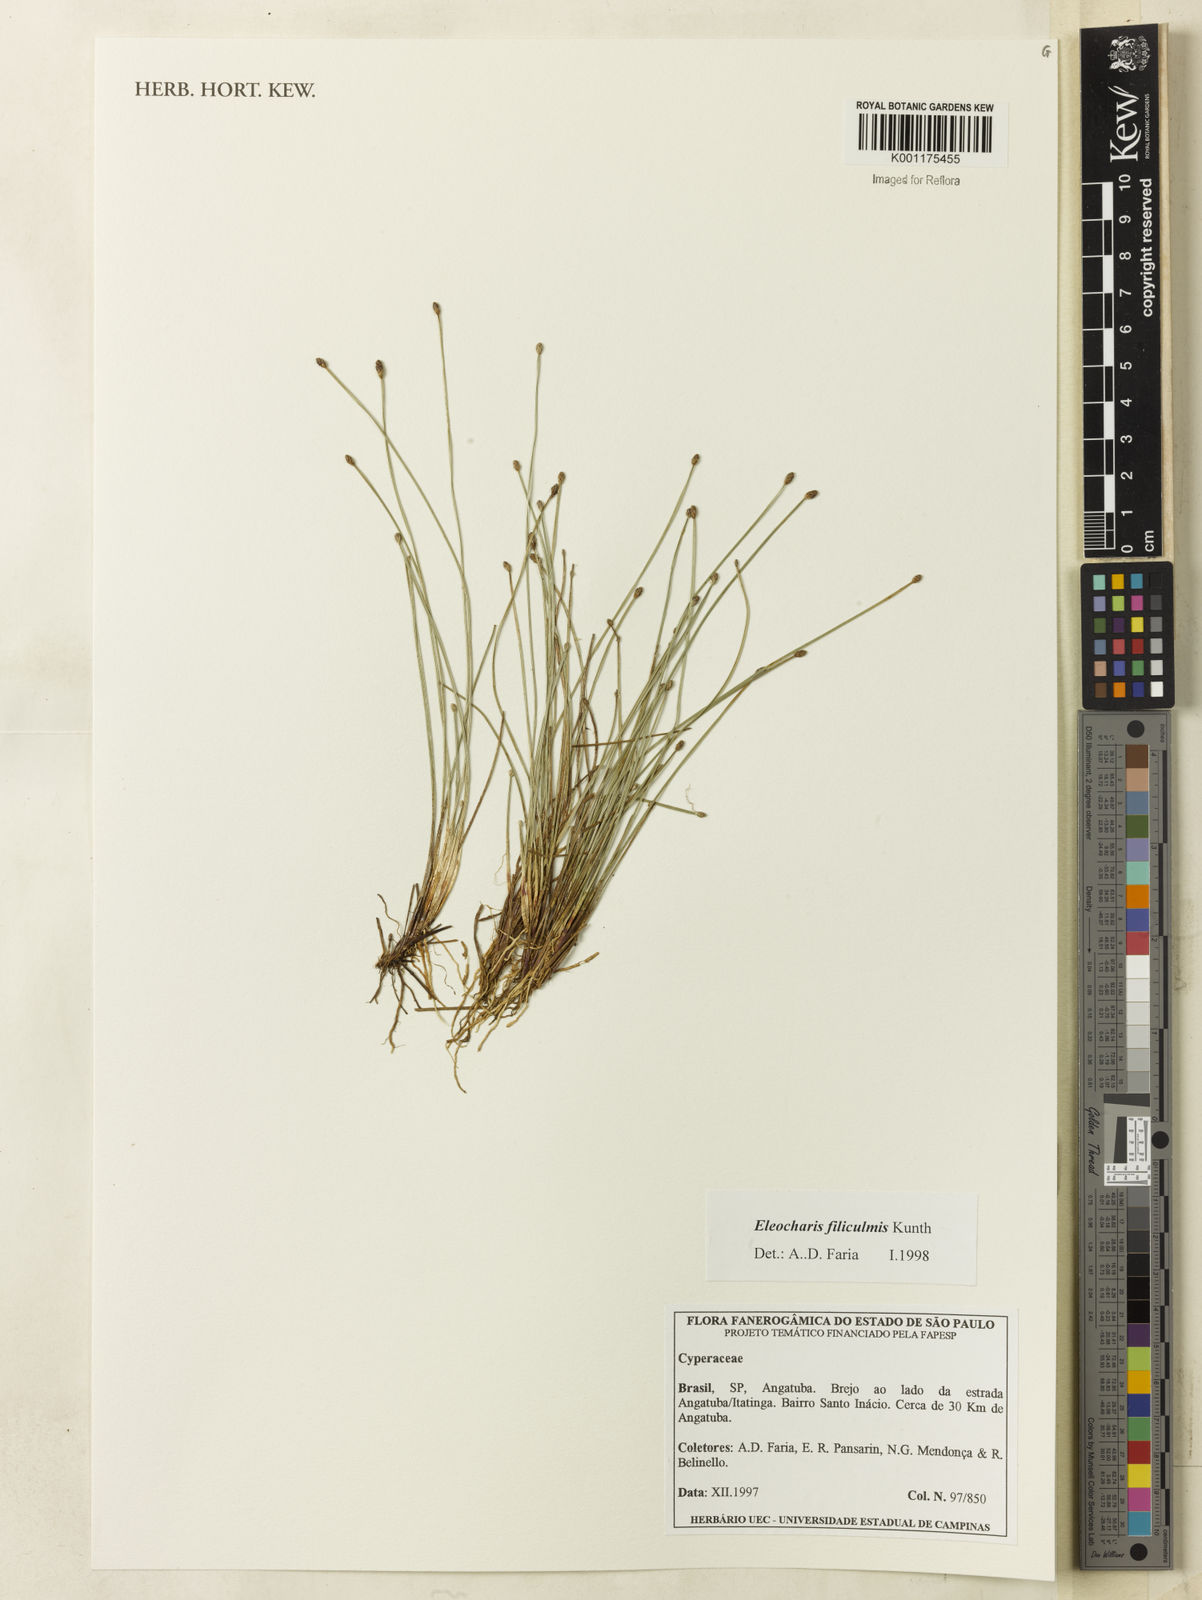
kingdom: Plantae
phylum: Tracheophyta
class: Liliopsida
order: Poales
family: Cyperaceae
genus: Eleocharis
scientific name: Eleocharis filiculmis
